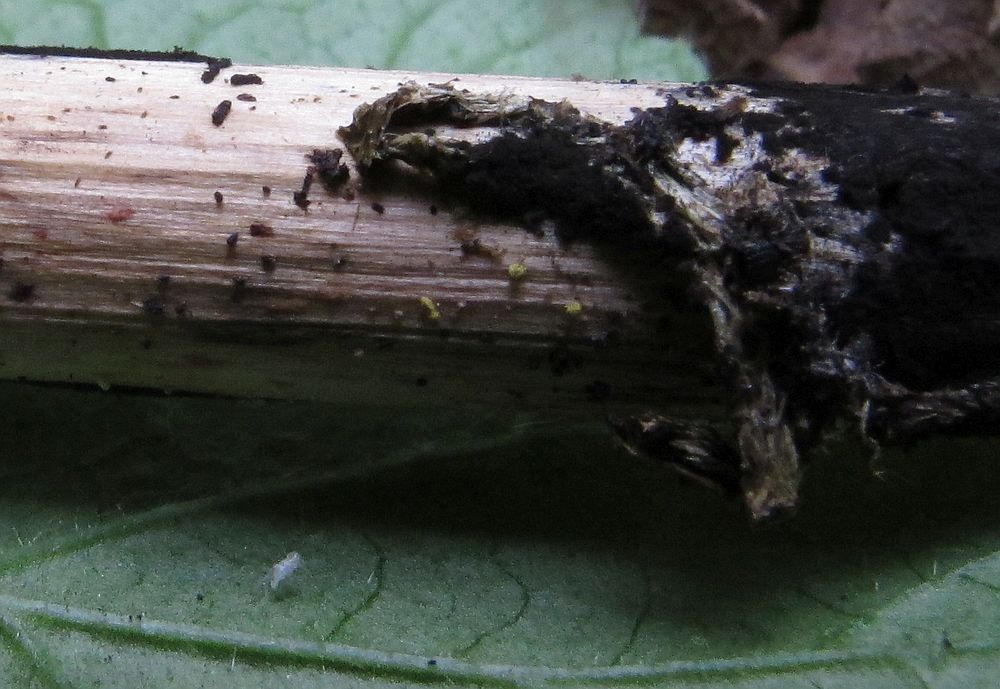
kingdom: Fungi
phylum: Ascomycota
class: Leotiomycetes
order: Helotiales
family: Lachnaceae
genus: Lachnum
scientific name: Lachnum sulphureum
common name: svovlhåret frynseskive
